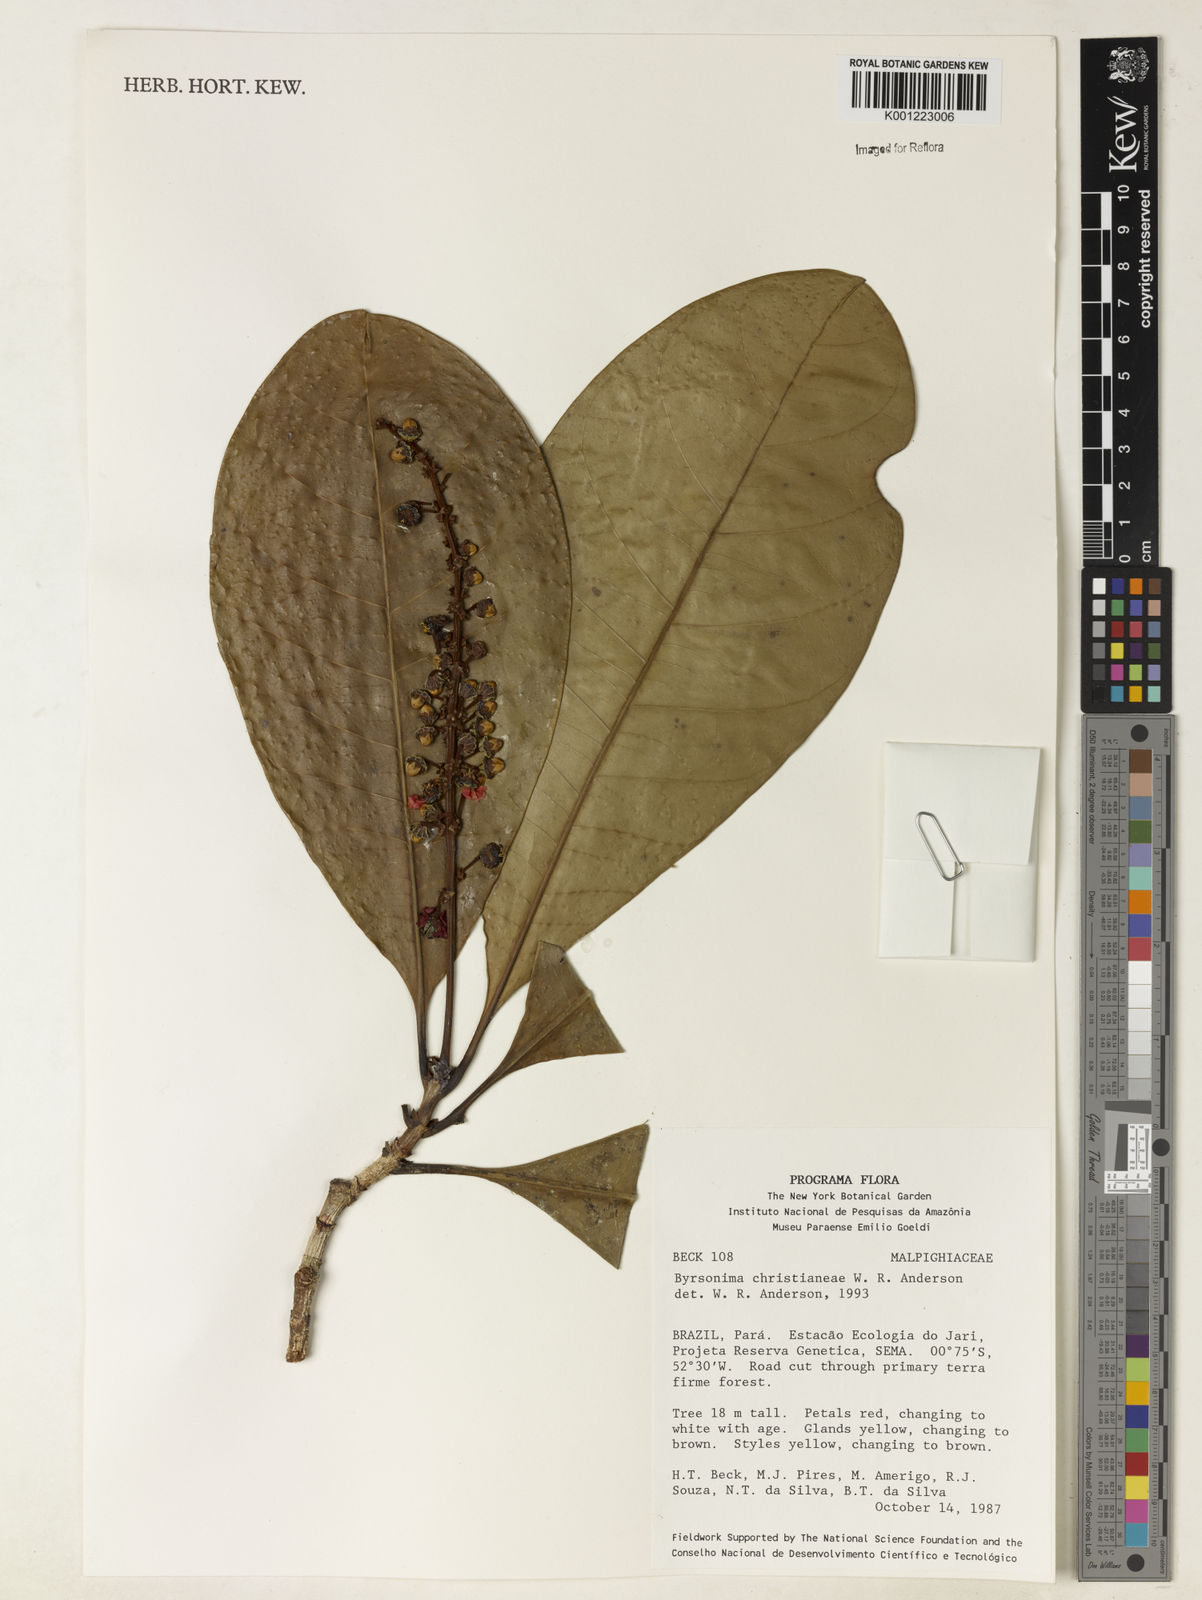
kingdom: Plantae
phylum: Tracheophyta
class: Magnoliopsida
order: Malpighiales
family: Malpighiaceae
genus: Byrsonima
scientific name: Byrsonima christianeae
